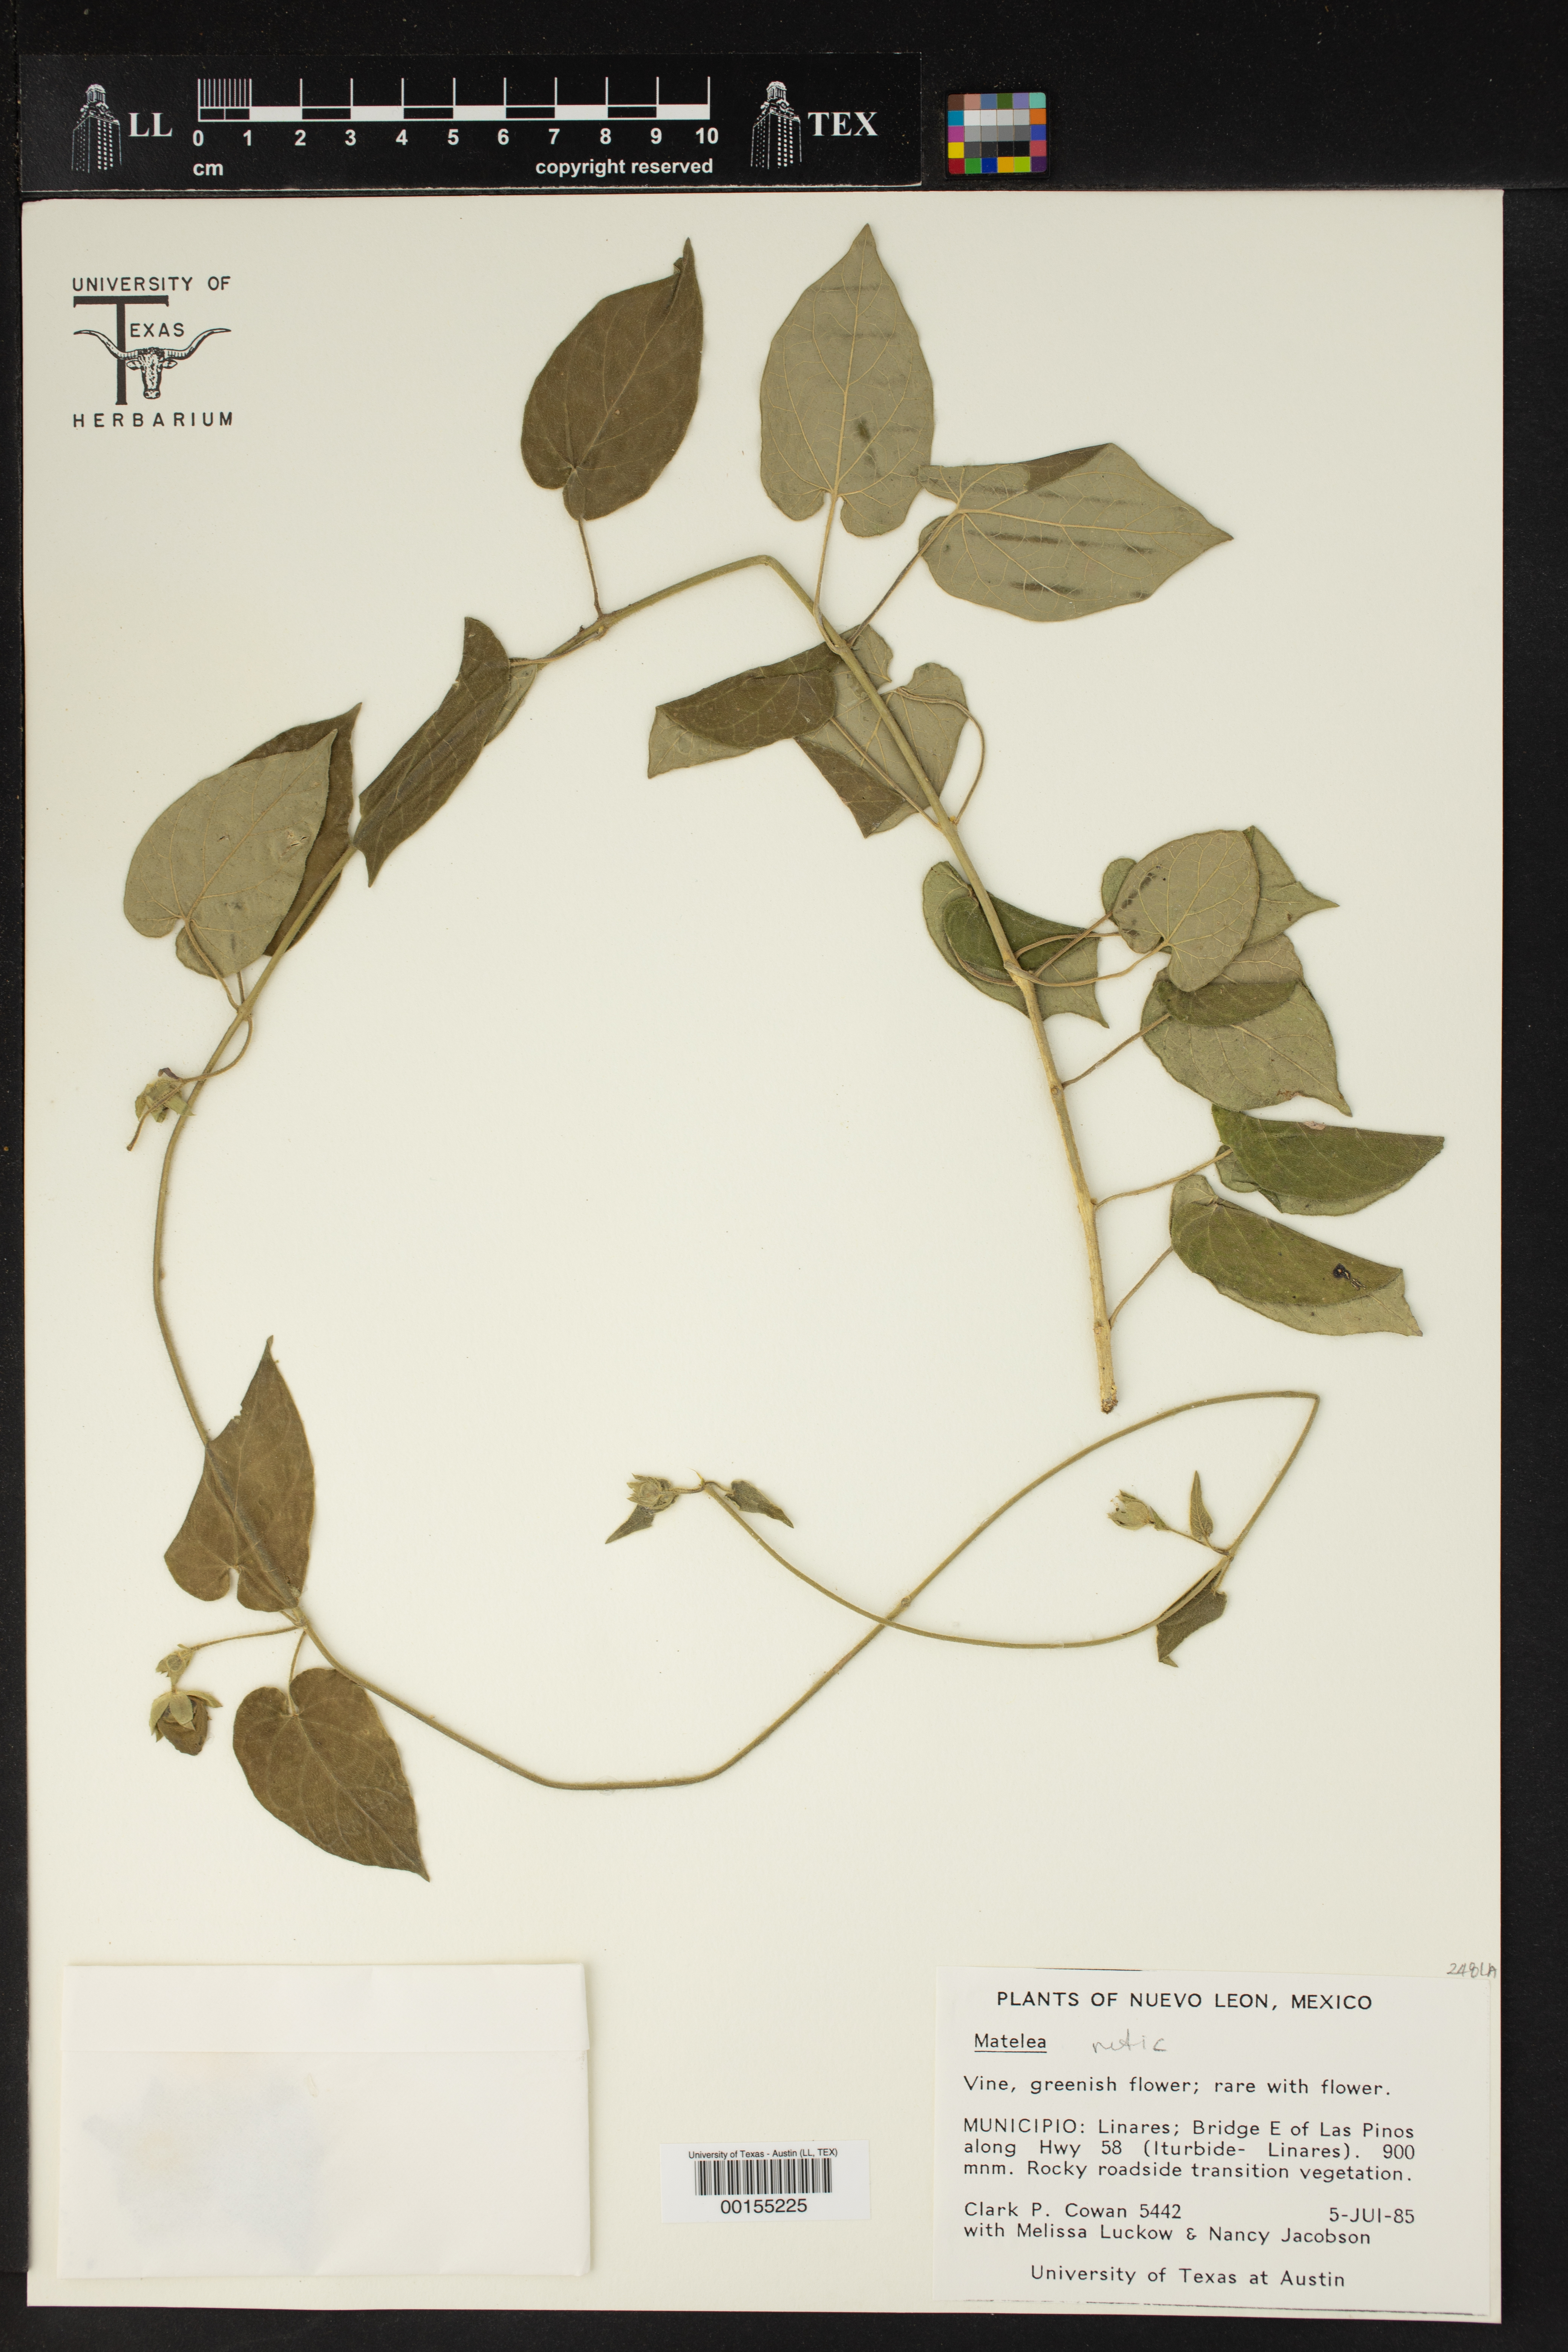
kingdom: Plantae
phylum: Tracheophyta
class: Magnoliopsida
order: Gentianales
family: Apocynaceae
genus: Matelea
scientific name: Matelea
